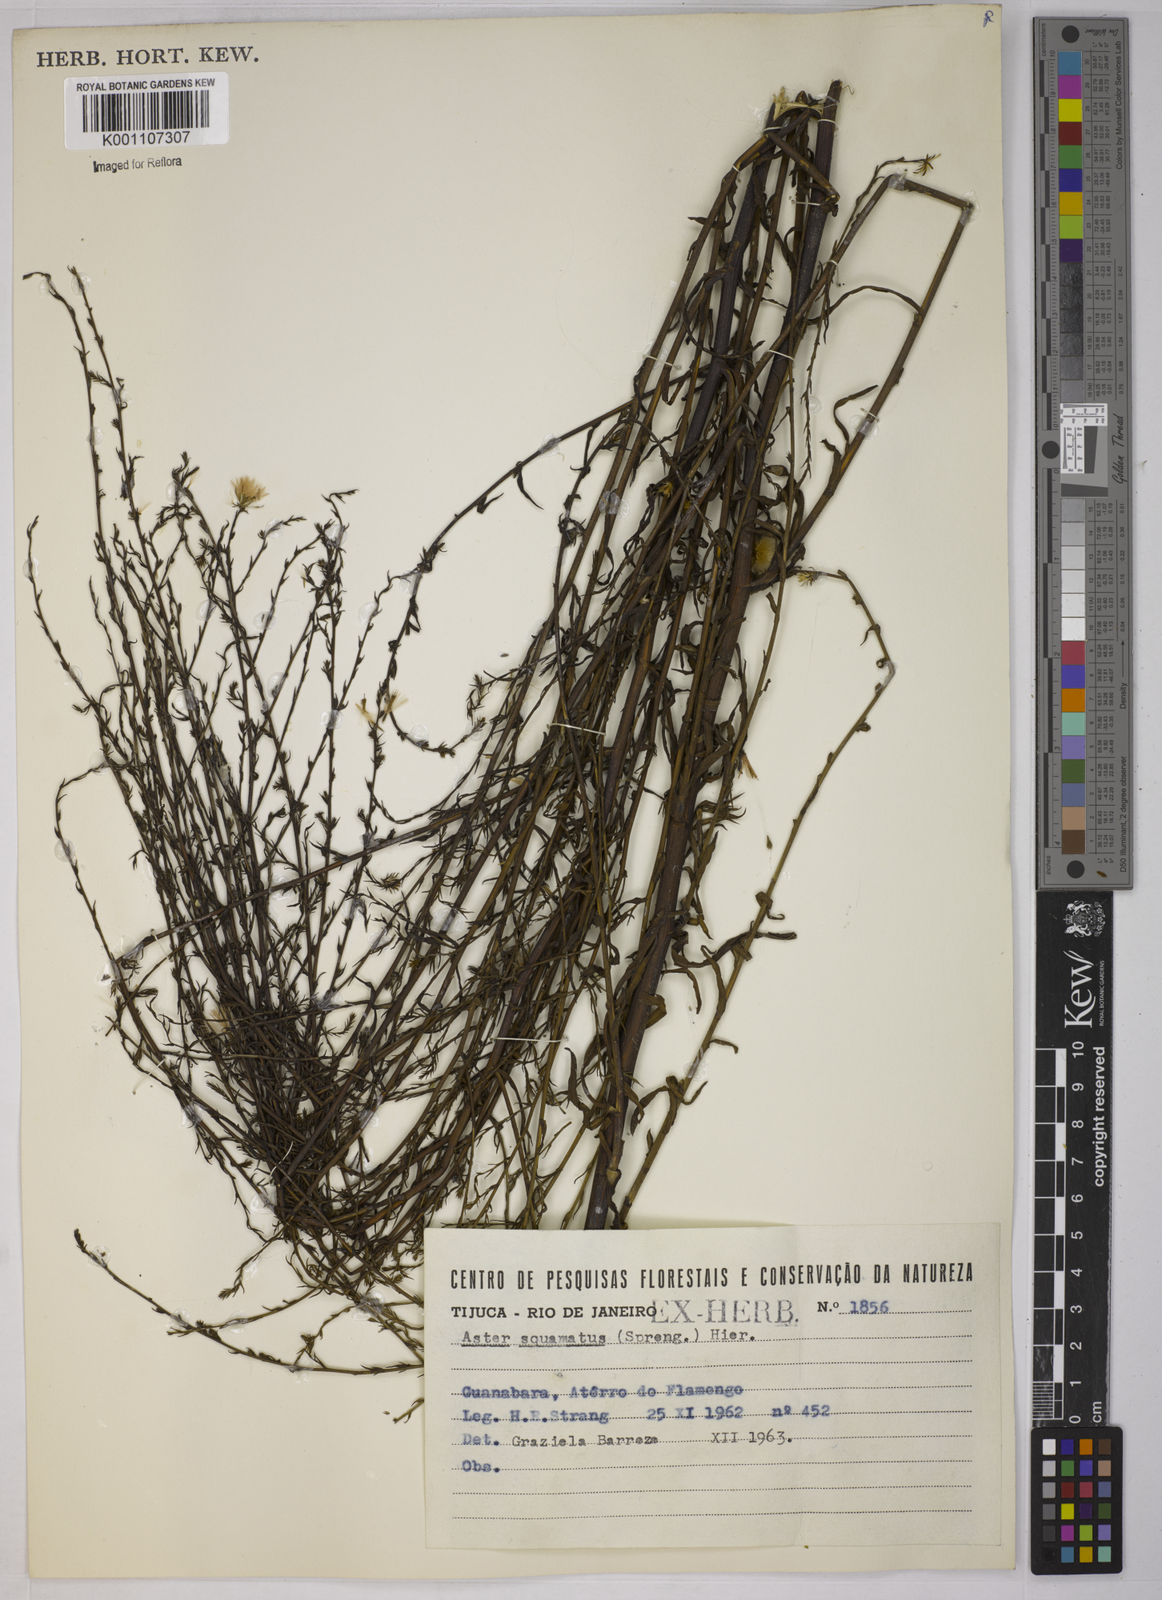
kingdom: Plantae
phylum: Tracheophyta
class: Magnoliopsida
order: Asterales
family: Asteraceae
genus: Symphyotrichum
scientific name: Symphyotrichum
